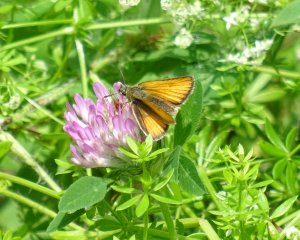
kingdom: Animalia
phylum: Arthropoda
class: Insecta
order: Lepidoptera
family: Hesperiidae
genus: Thymelicus
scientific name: Thymelicus lineola
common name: European Skipper
